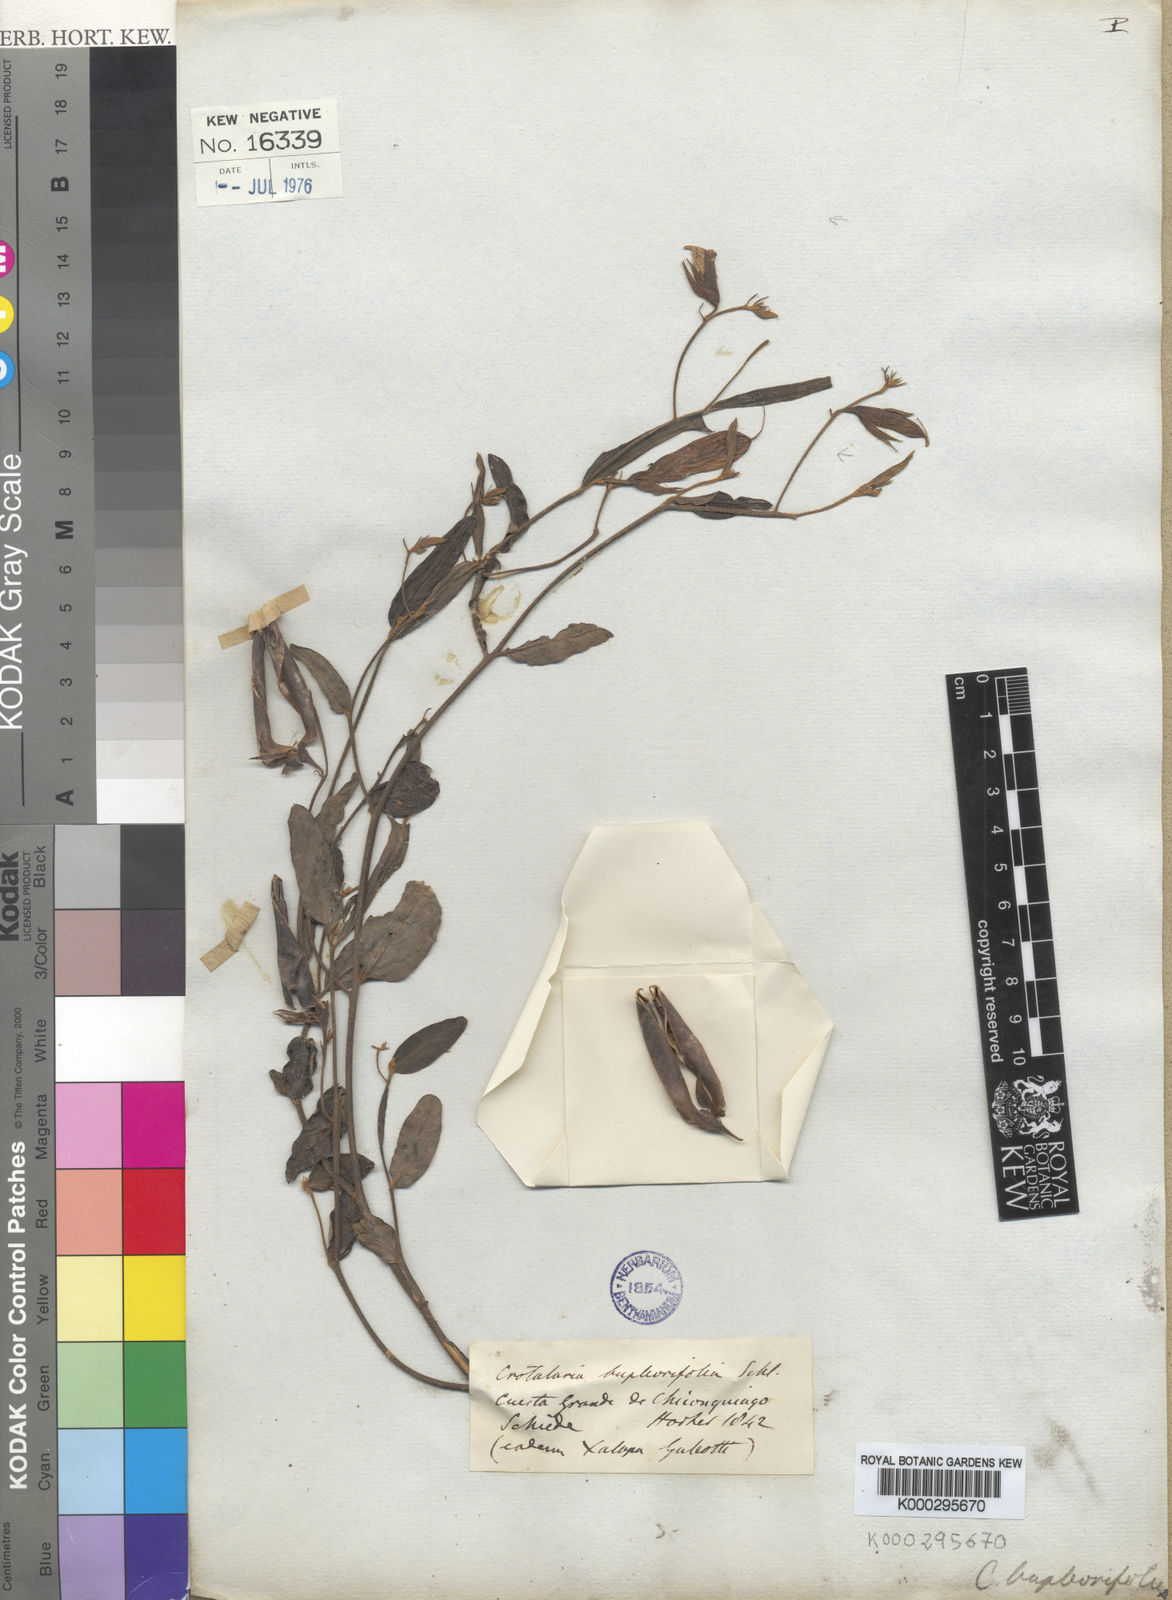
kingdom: Plantae
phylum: Tracheophyta
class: Magnoliopsida
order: Fabales
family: Fabaceae
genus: Crotalaria
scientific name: Crotalaria bupleurifolia
